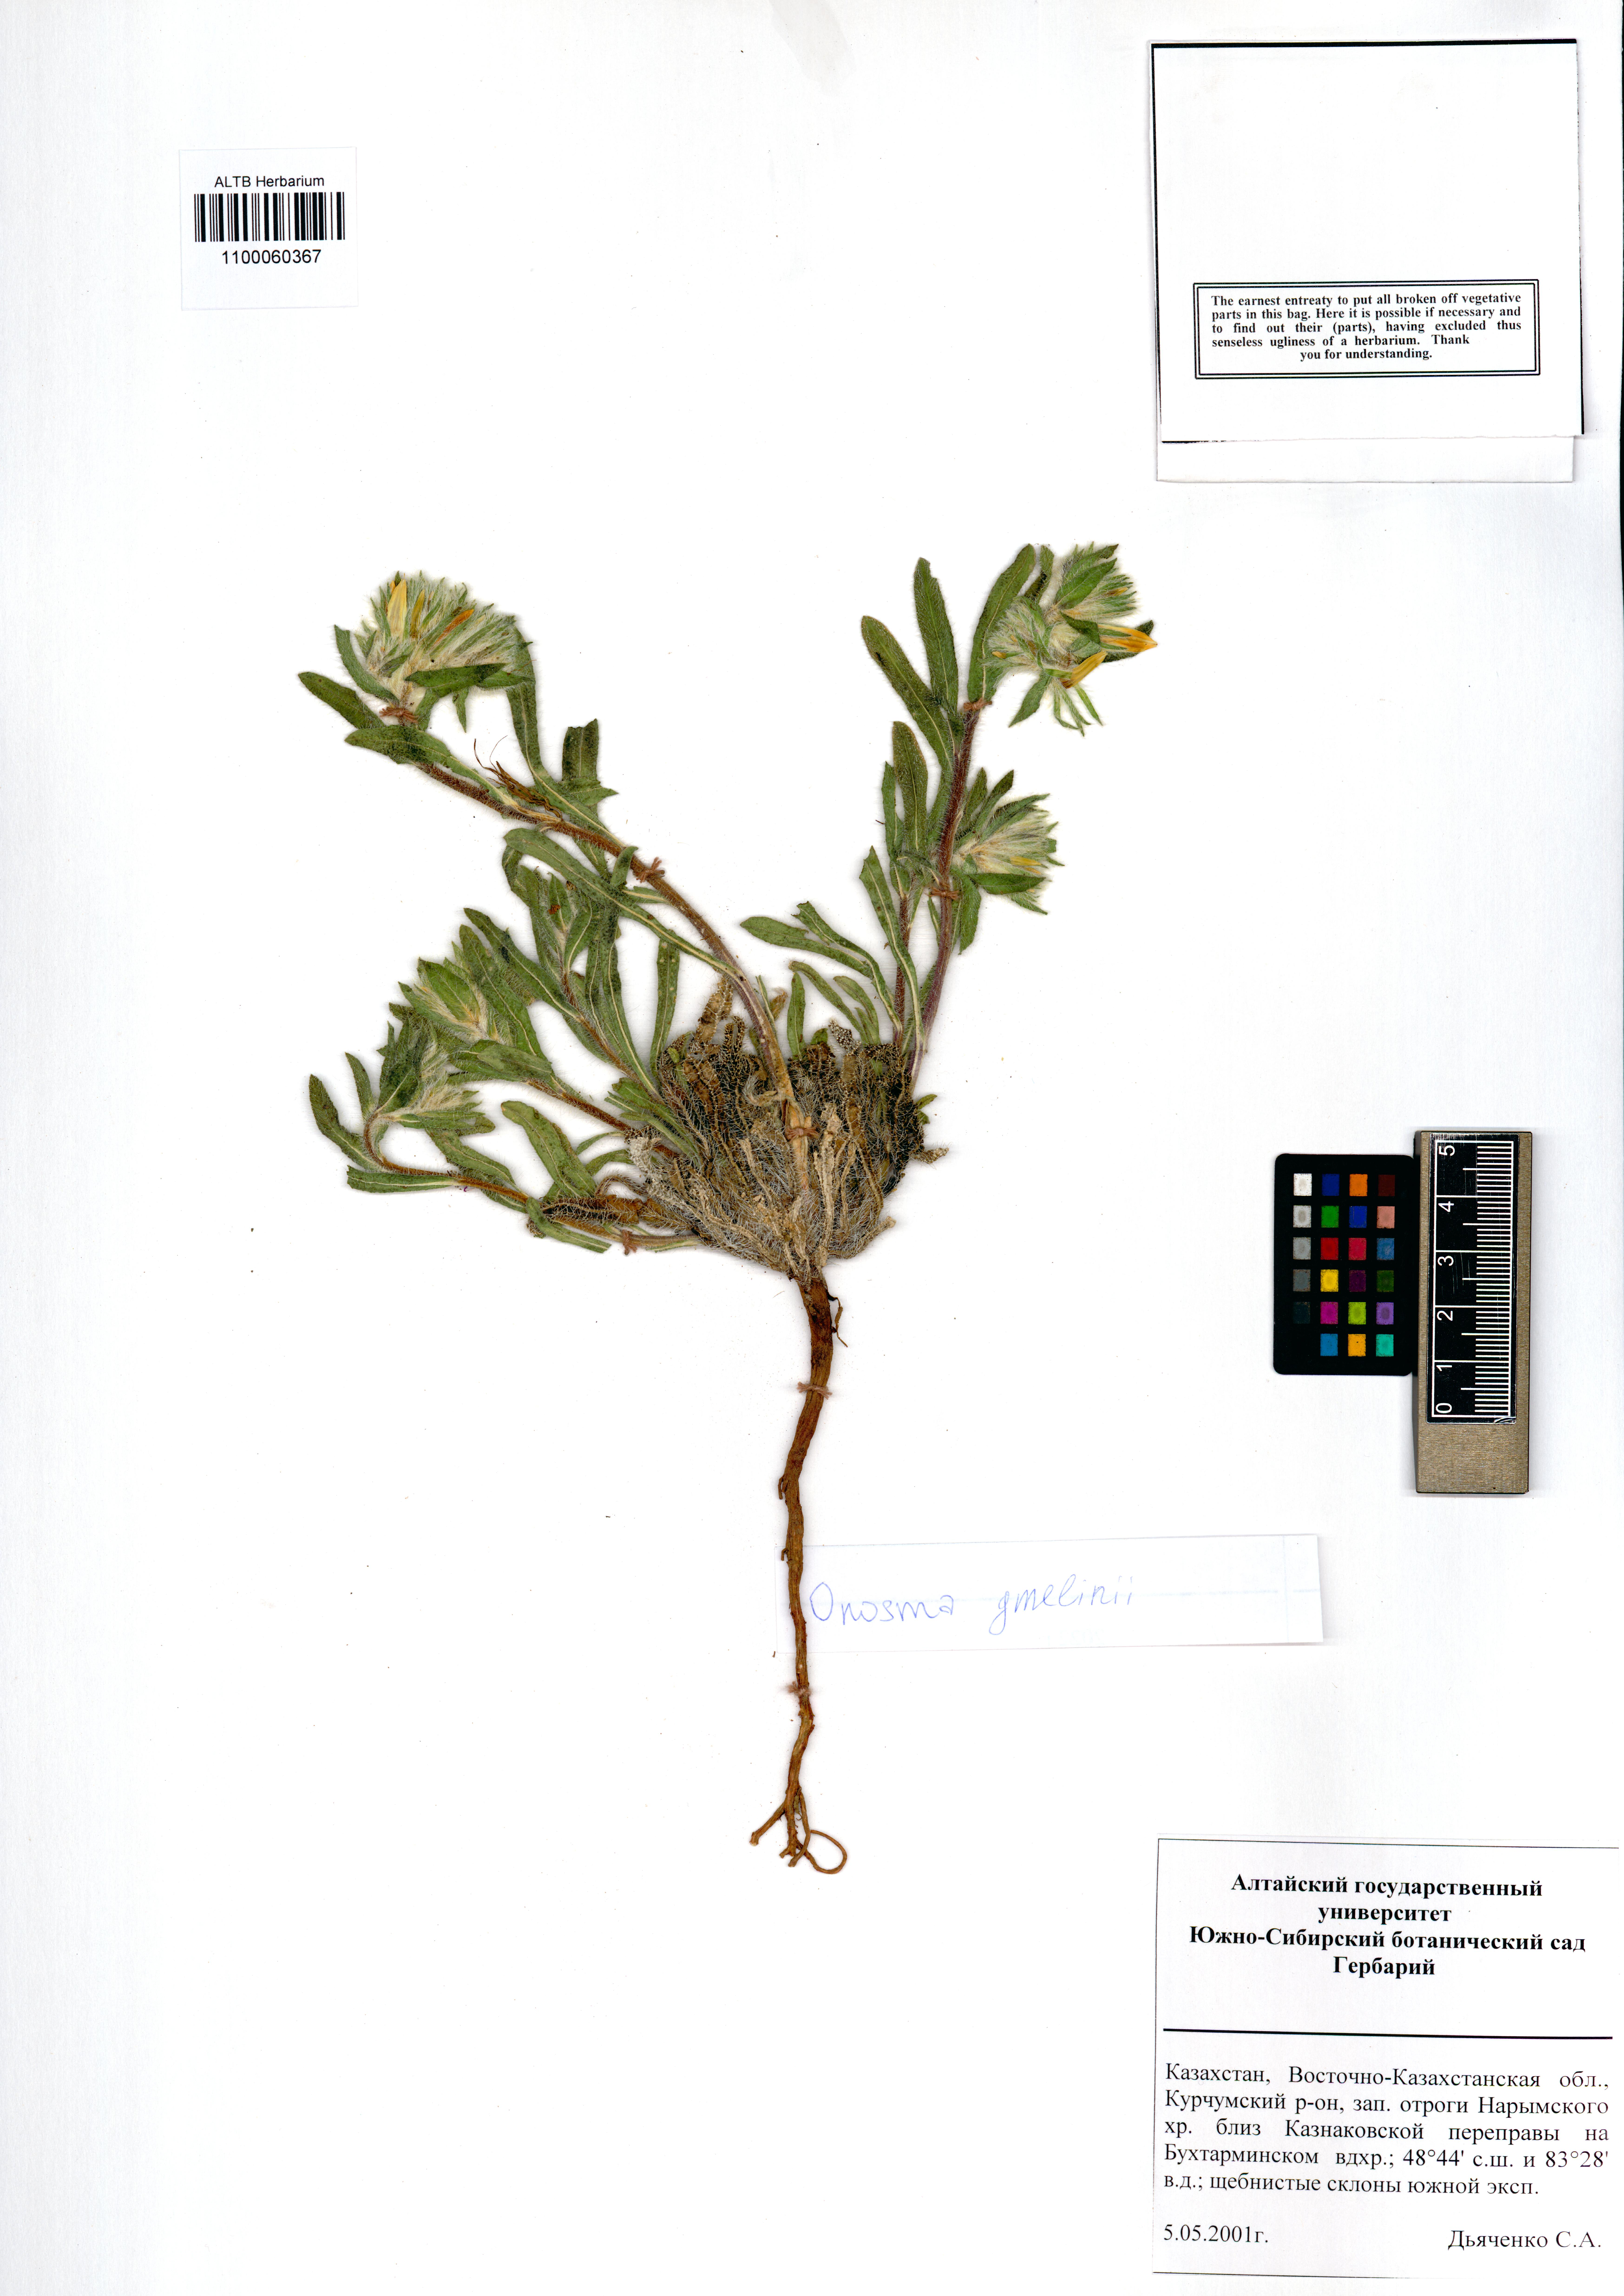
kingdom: Plantae
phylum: Tracheophyta
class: Magnoliopsida
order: Boraginales
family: Boraginaceae
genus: Onosma
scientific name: Onosma gmelinii
